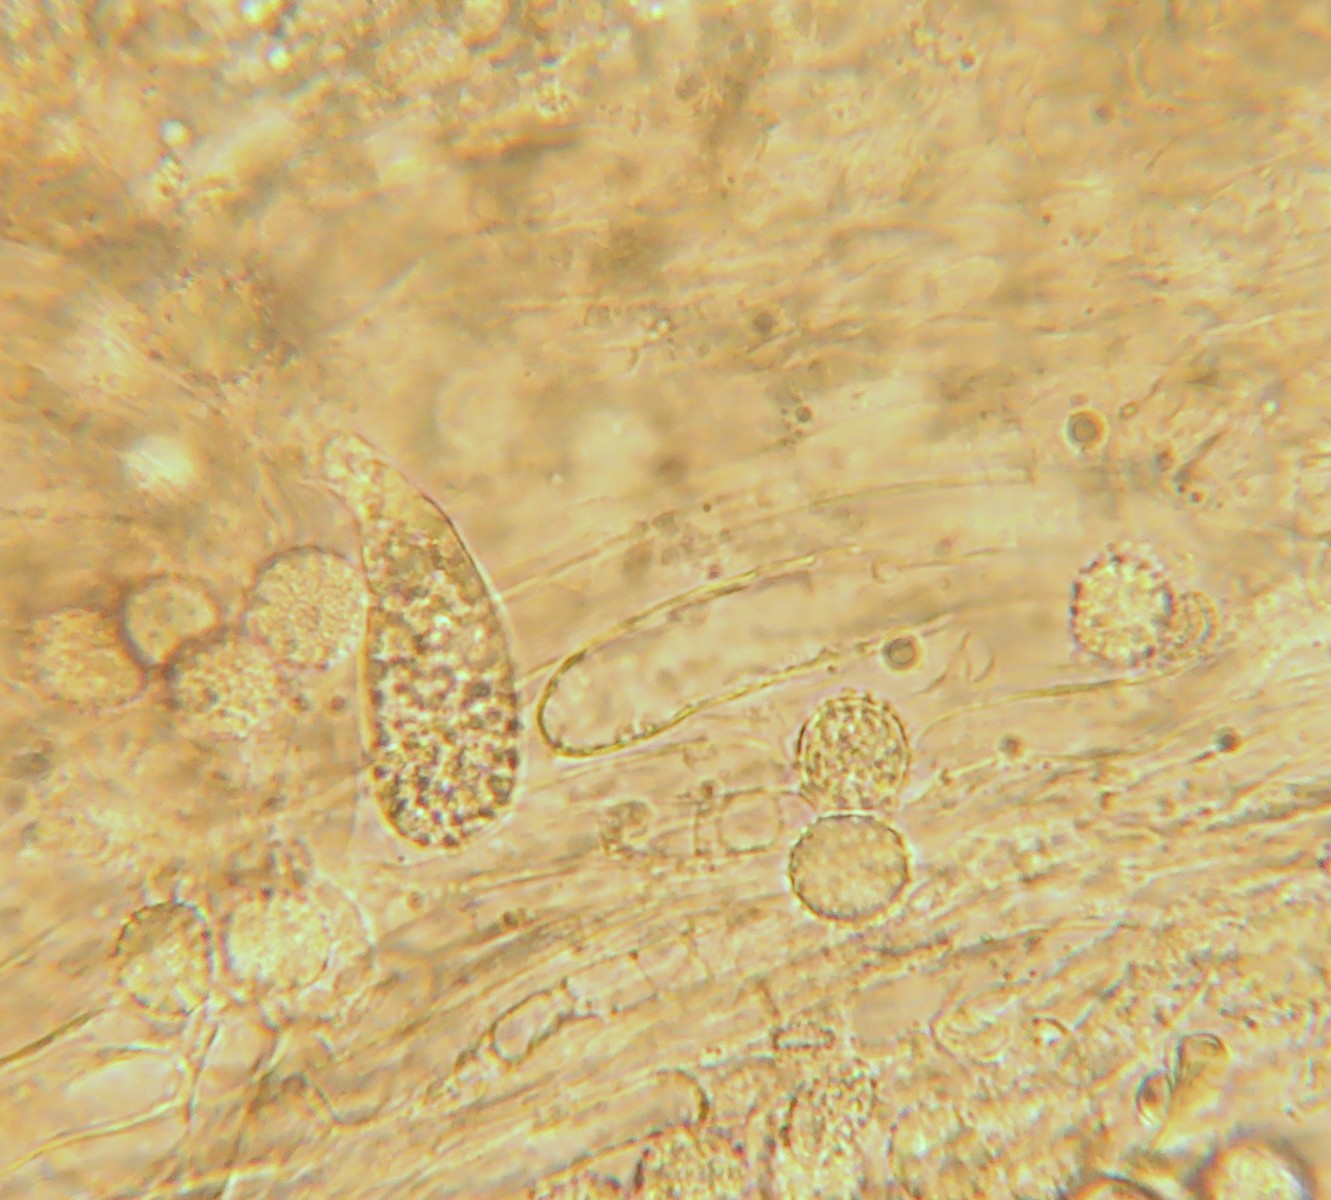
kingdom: Fungi
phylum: Basidiomycota
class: Agaricomycetes
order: Agaricales
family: Hydnangiaceae
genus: Laccaria
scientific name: Laccaria proxima
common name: stor ametysthat
